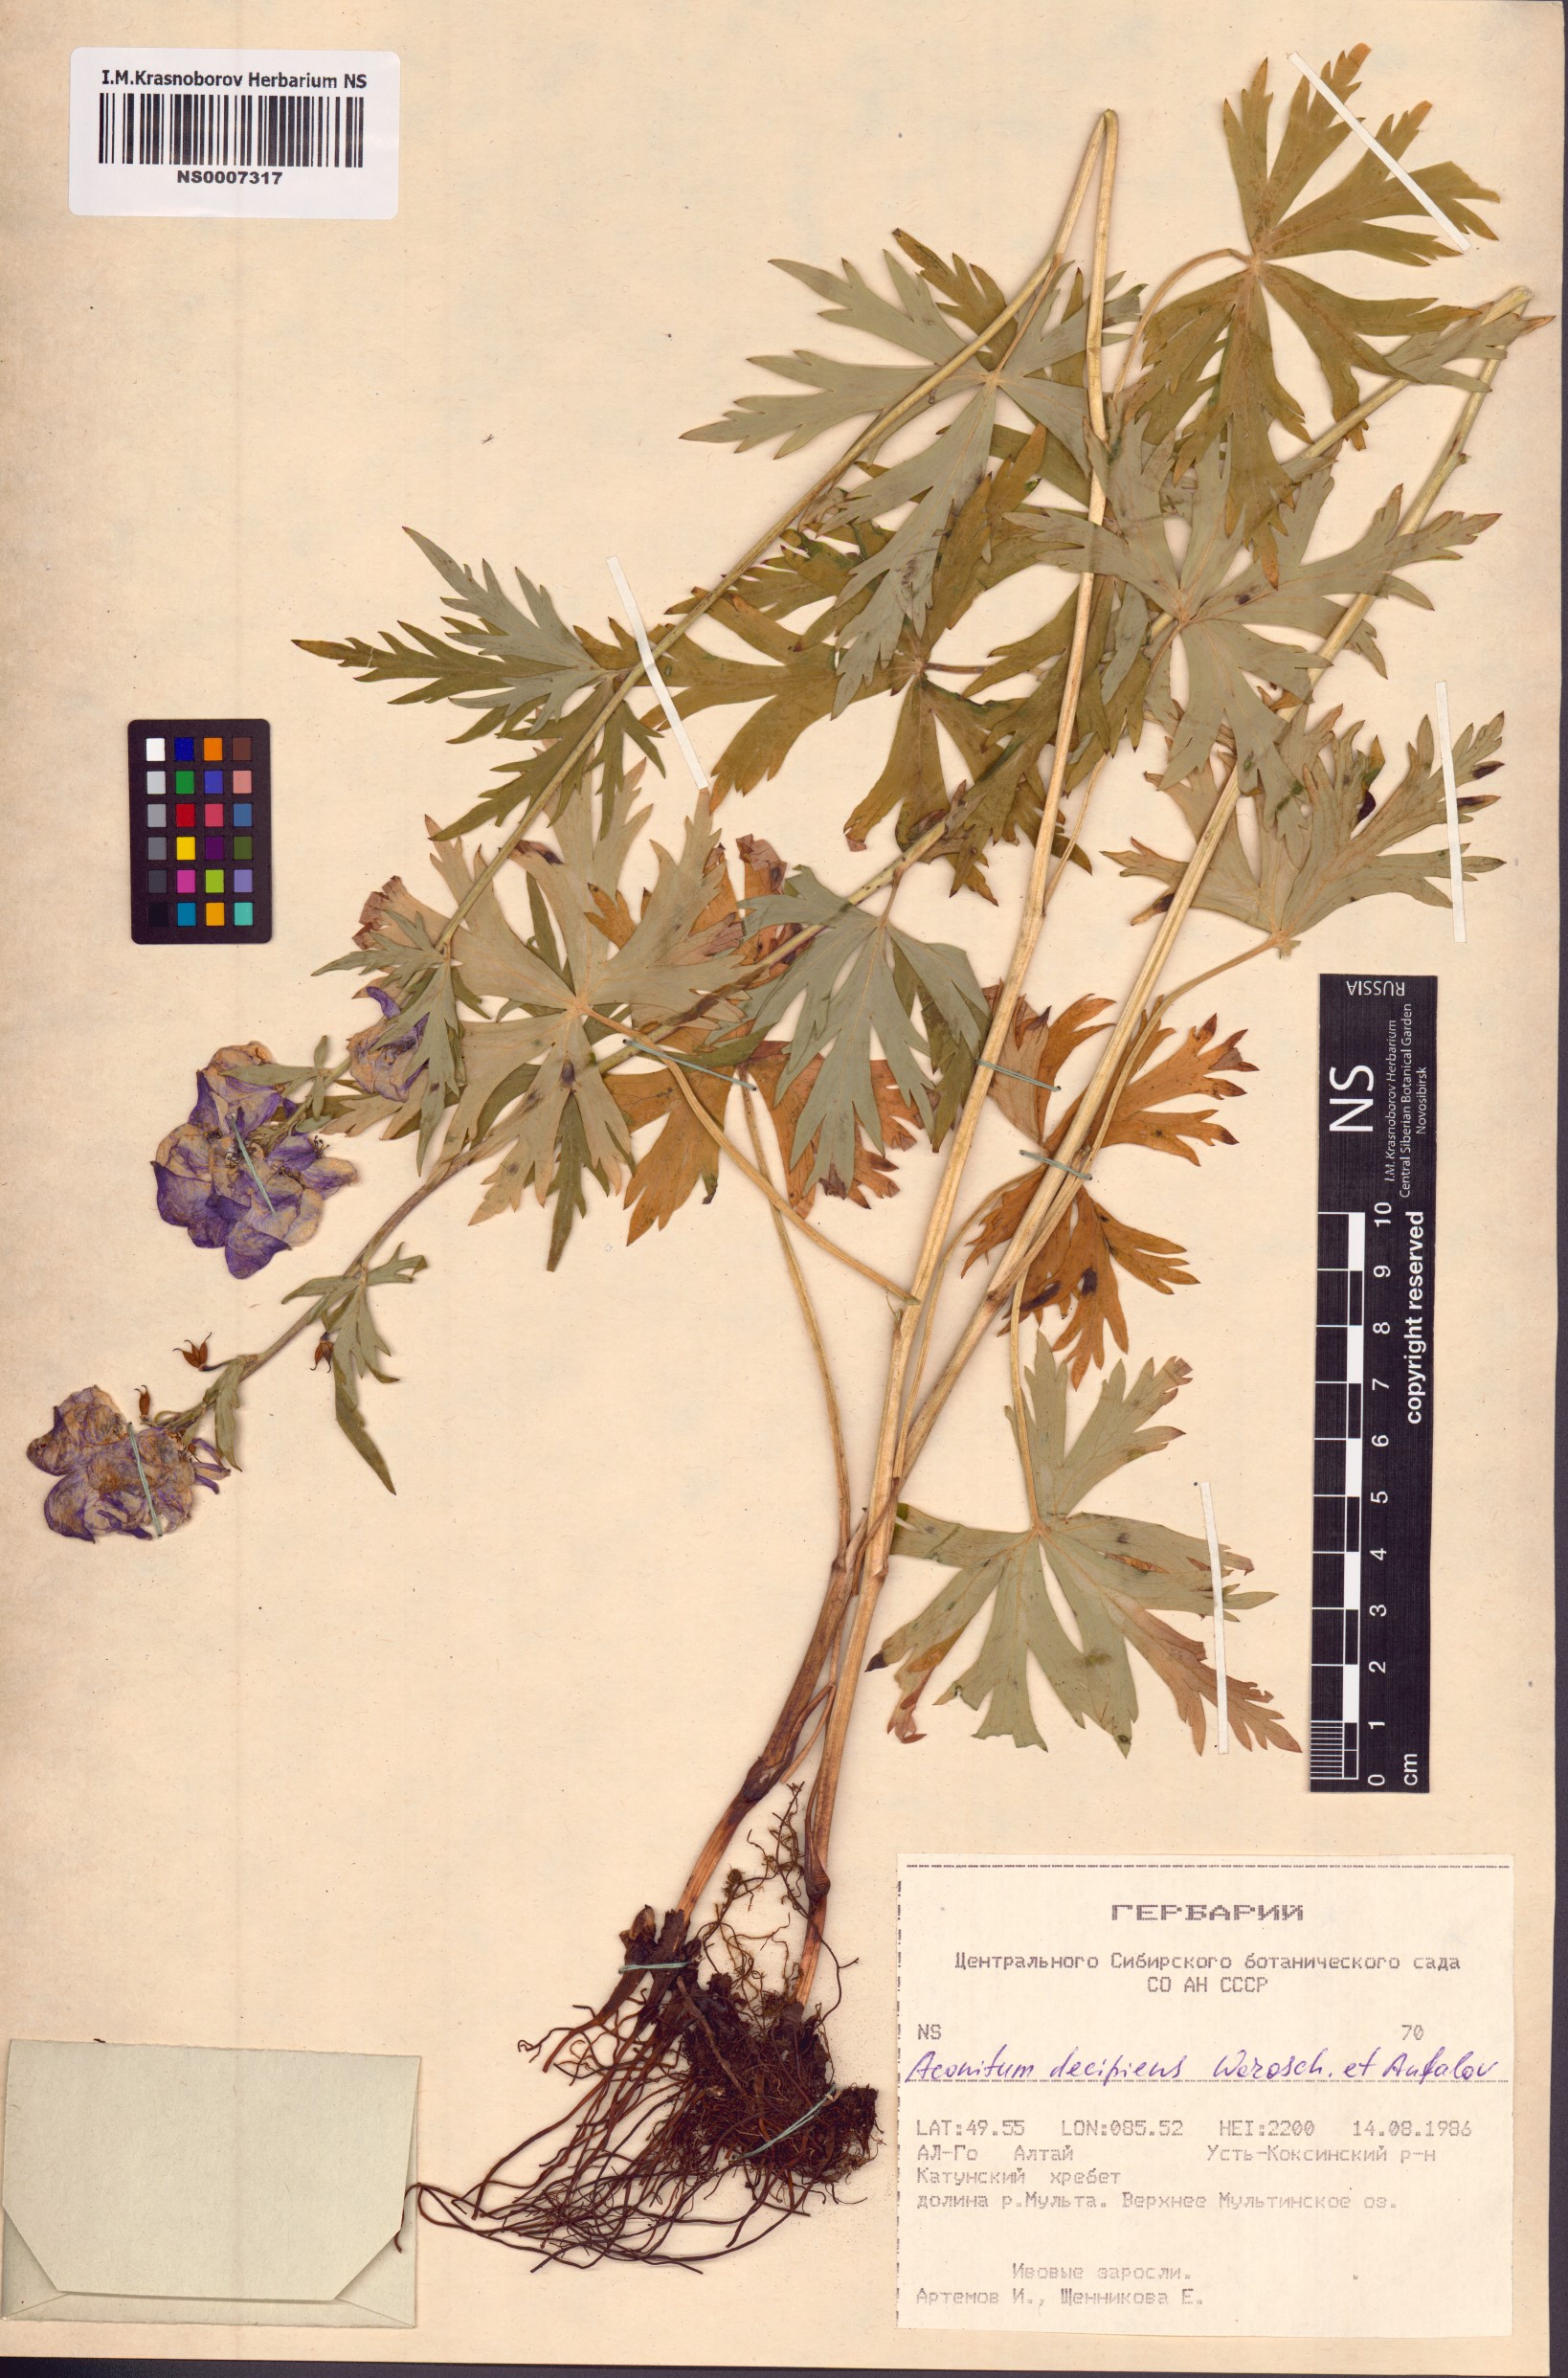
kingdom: Plantae
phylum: Tracheophyta
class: Magnoliopsida
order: Ranunculales
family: Ranunculaceae
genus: Aconitum
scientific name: Aconitum decipiens
